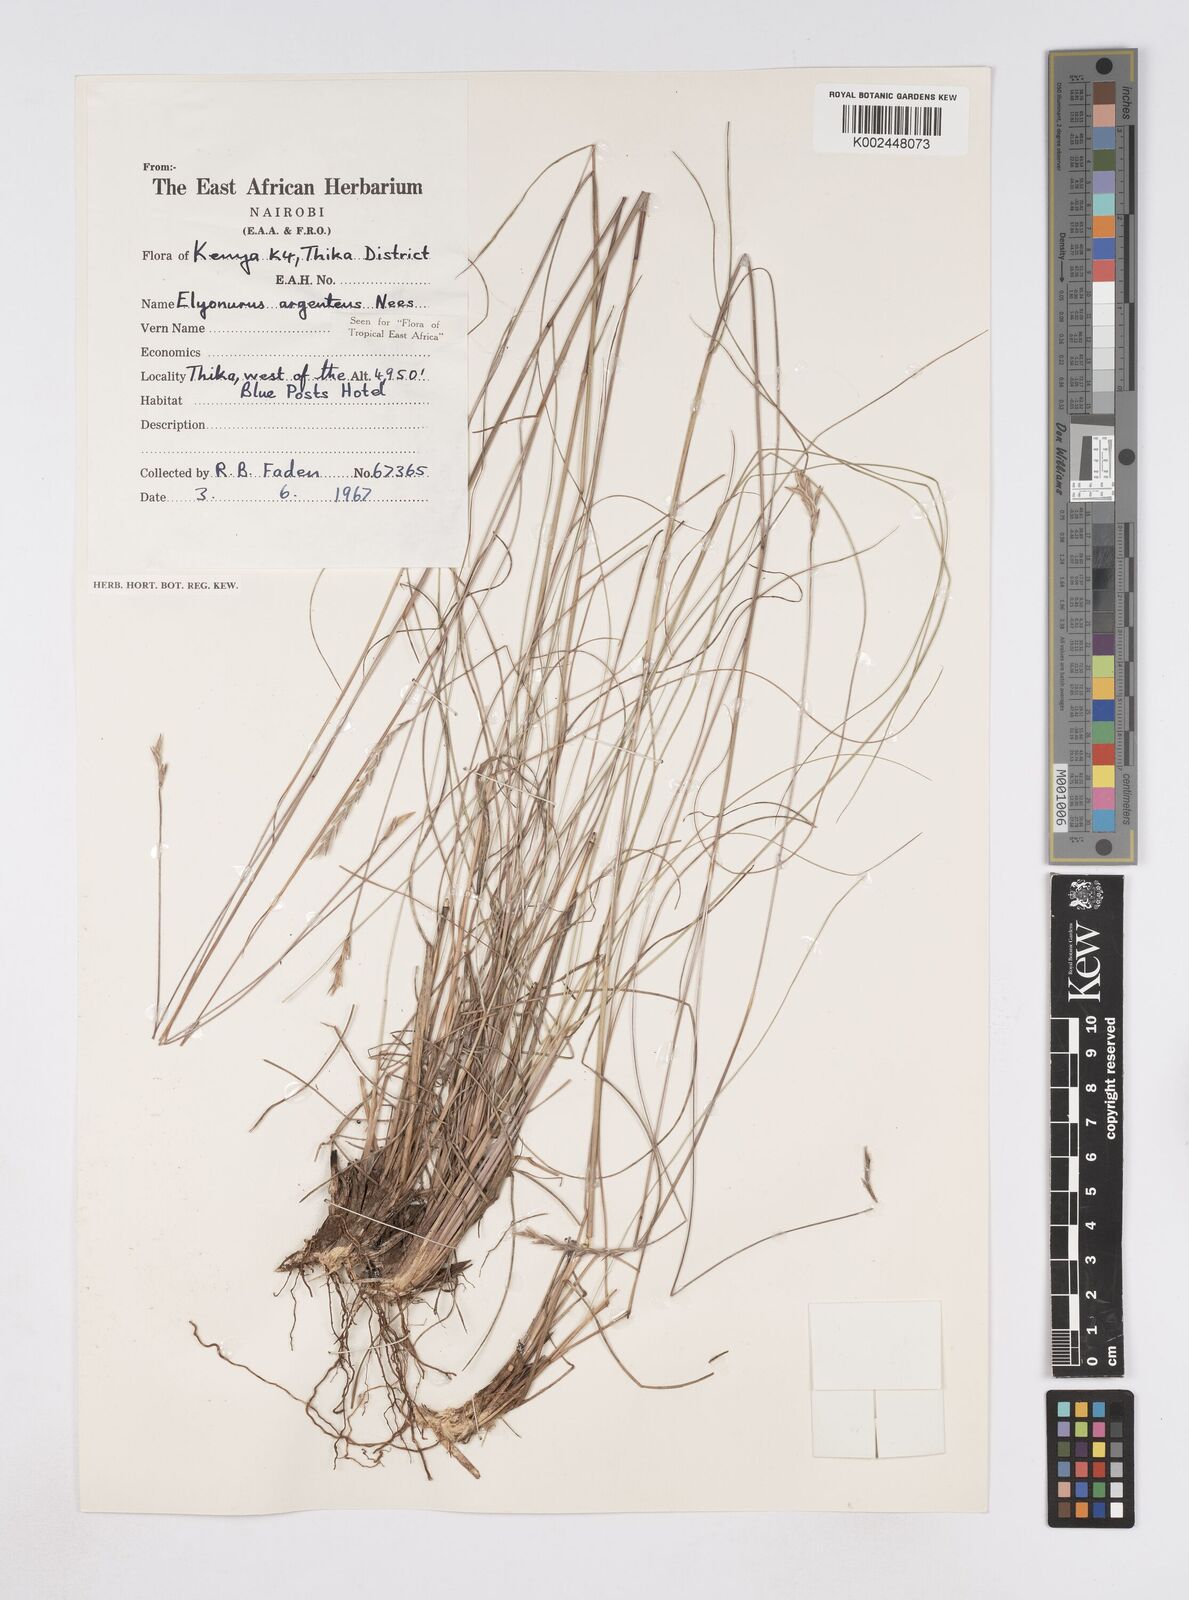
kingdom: Plantae
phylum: Tracheophyta
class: Liliopsida
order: Poales
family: Poaceae
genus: Elionurus
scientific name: Elionurus muticus
